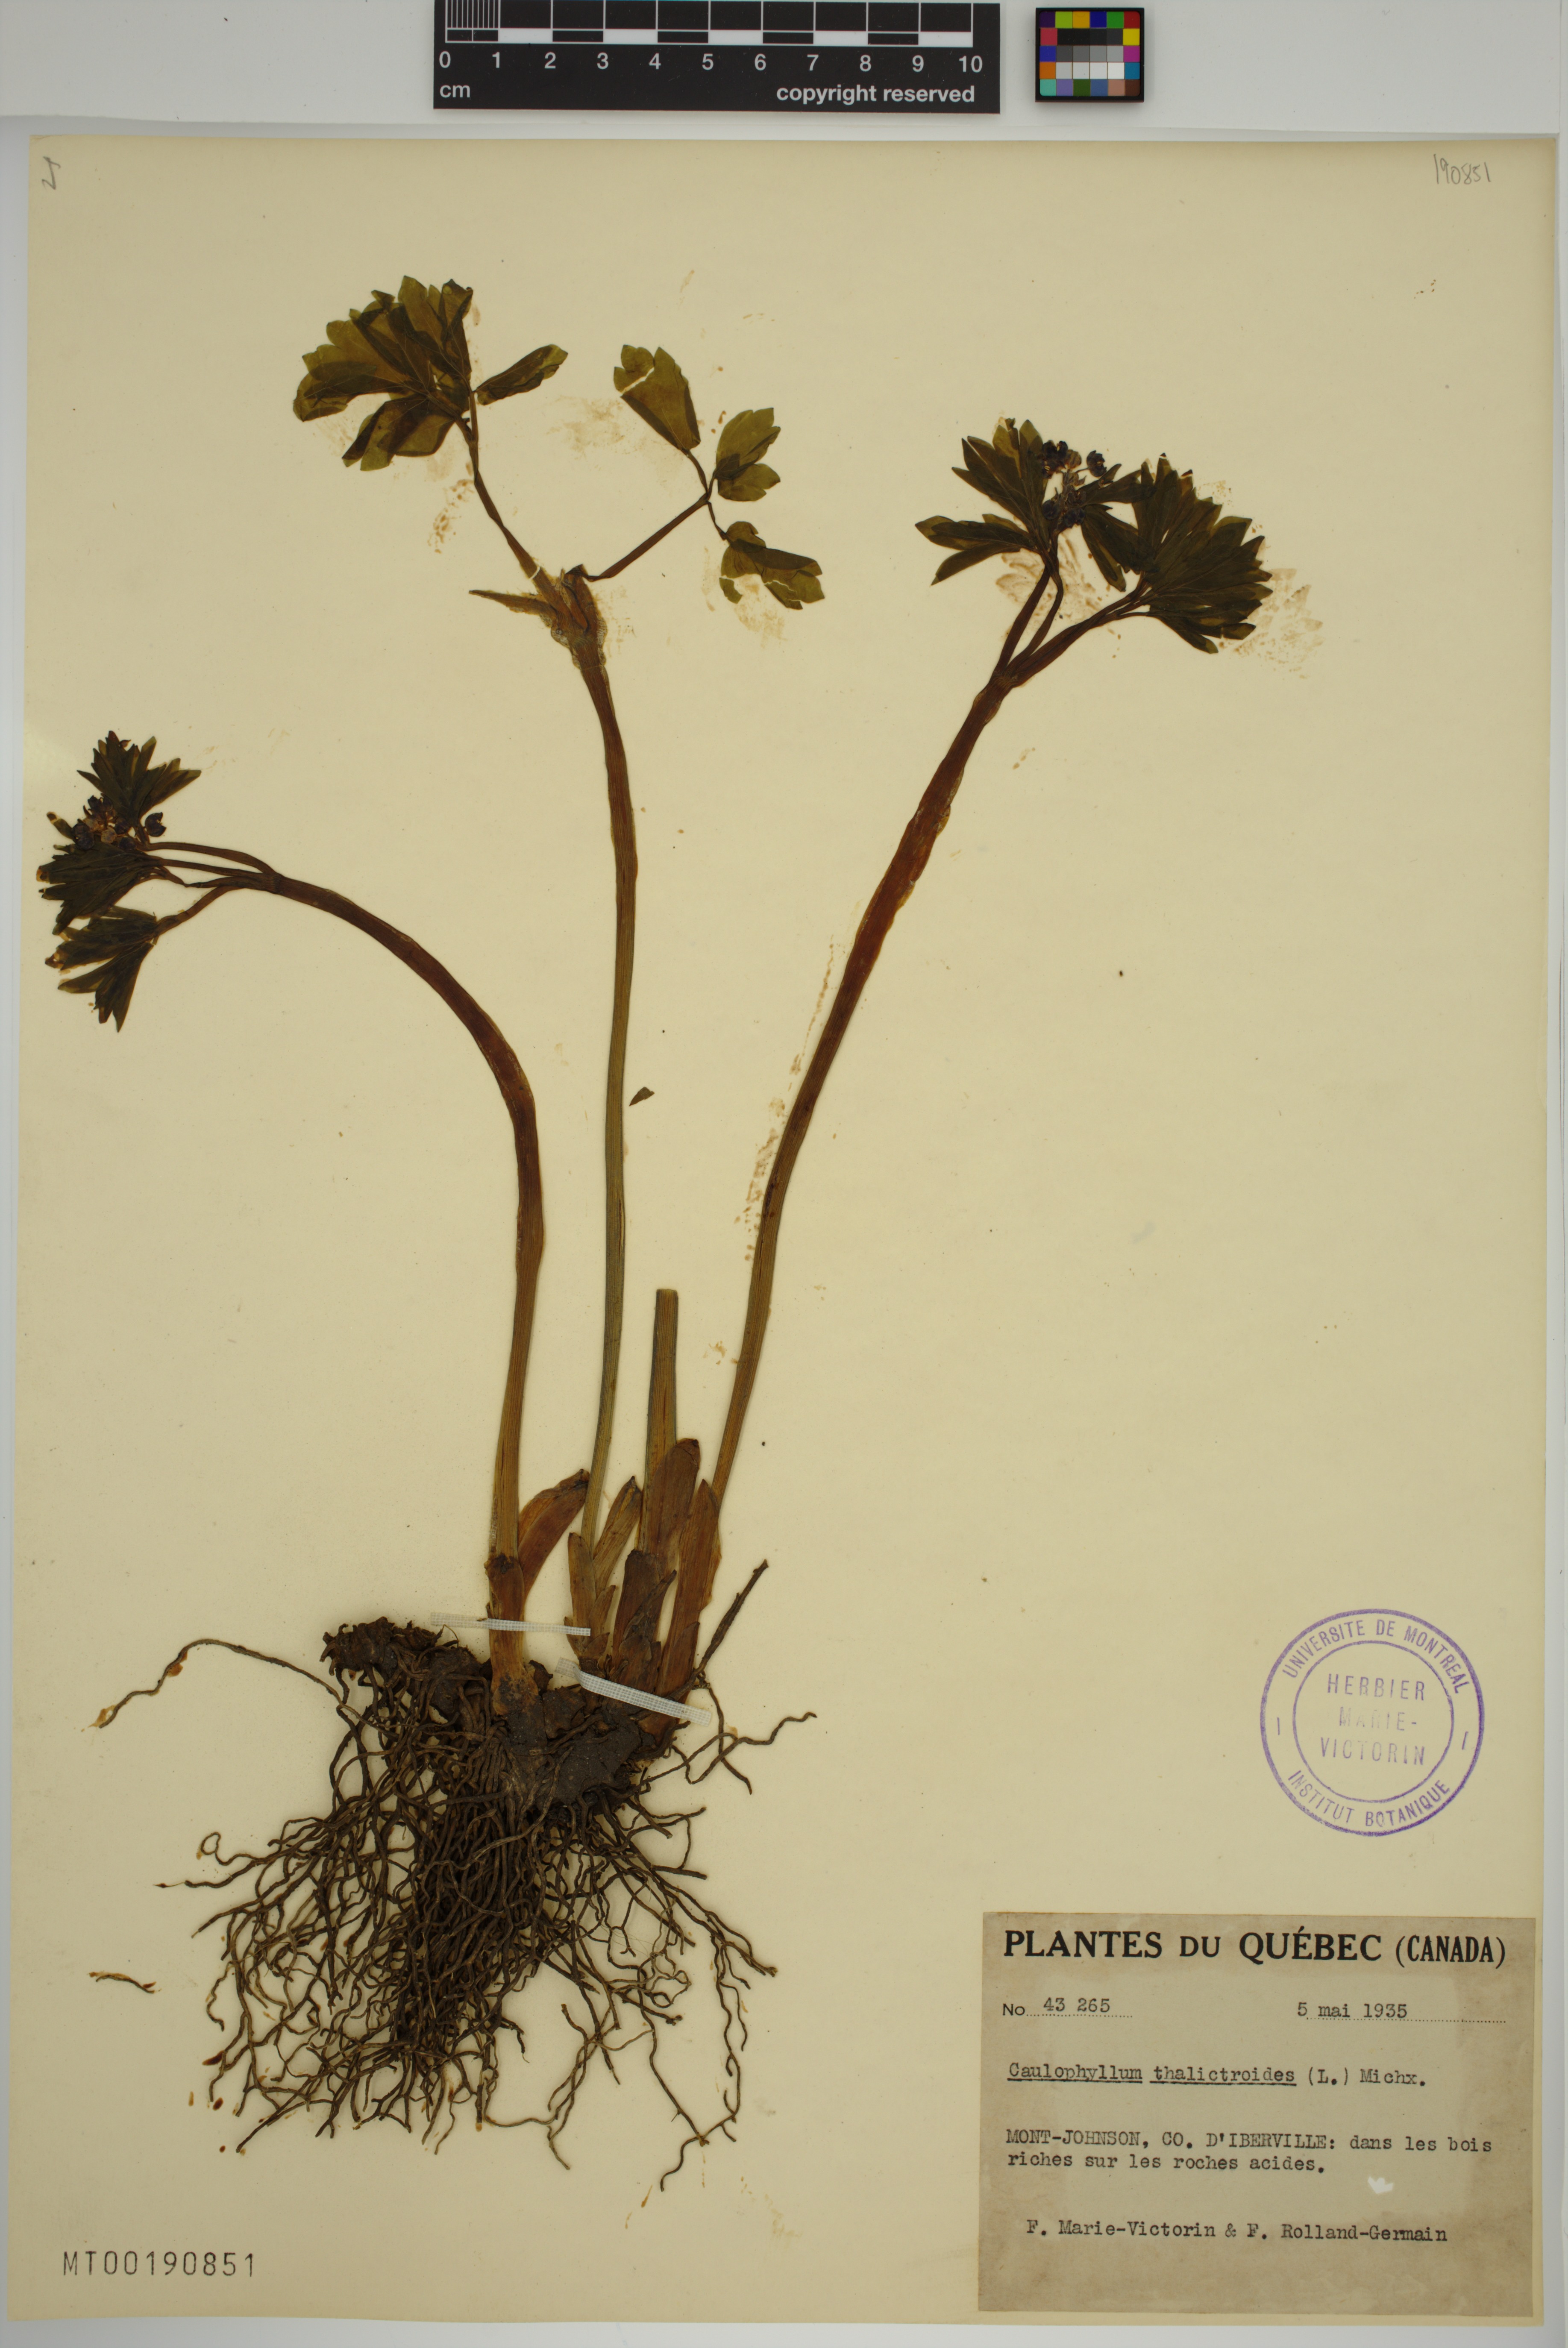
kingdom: Plantae
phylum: Tracheophyta
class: Magnoliopsida
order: Ranunculales
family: Berberidaceae
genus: Caulophyllum
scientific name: Caulophyllum thalictroides
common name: Blue cohosh
